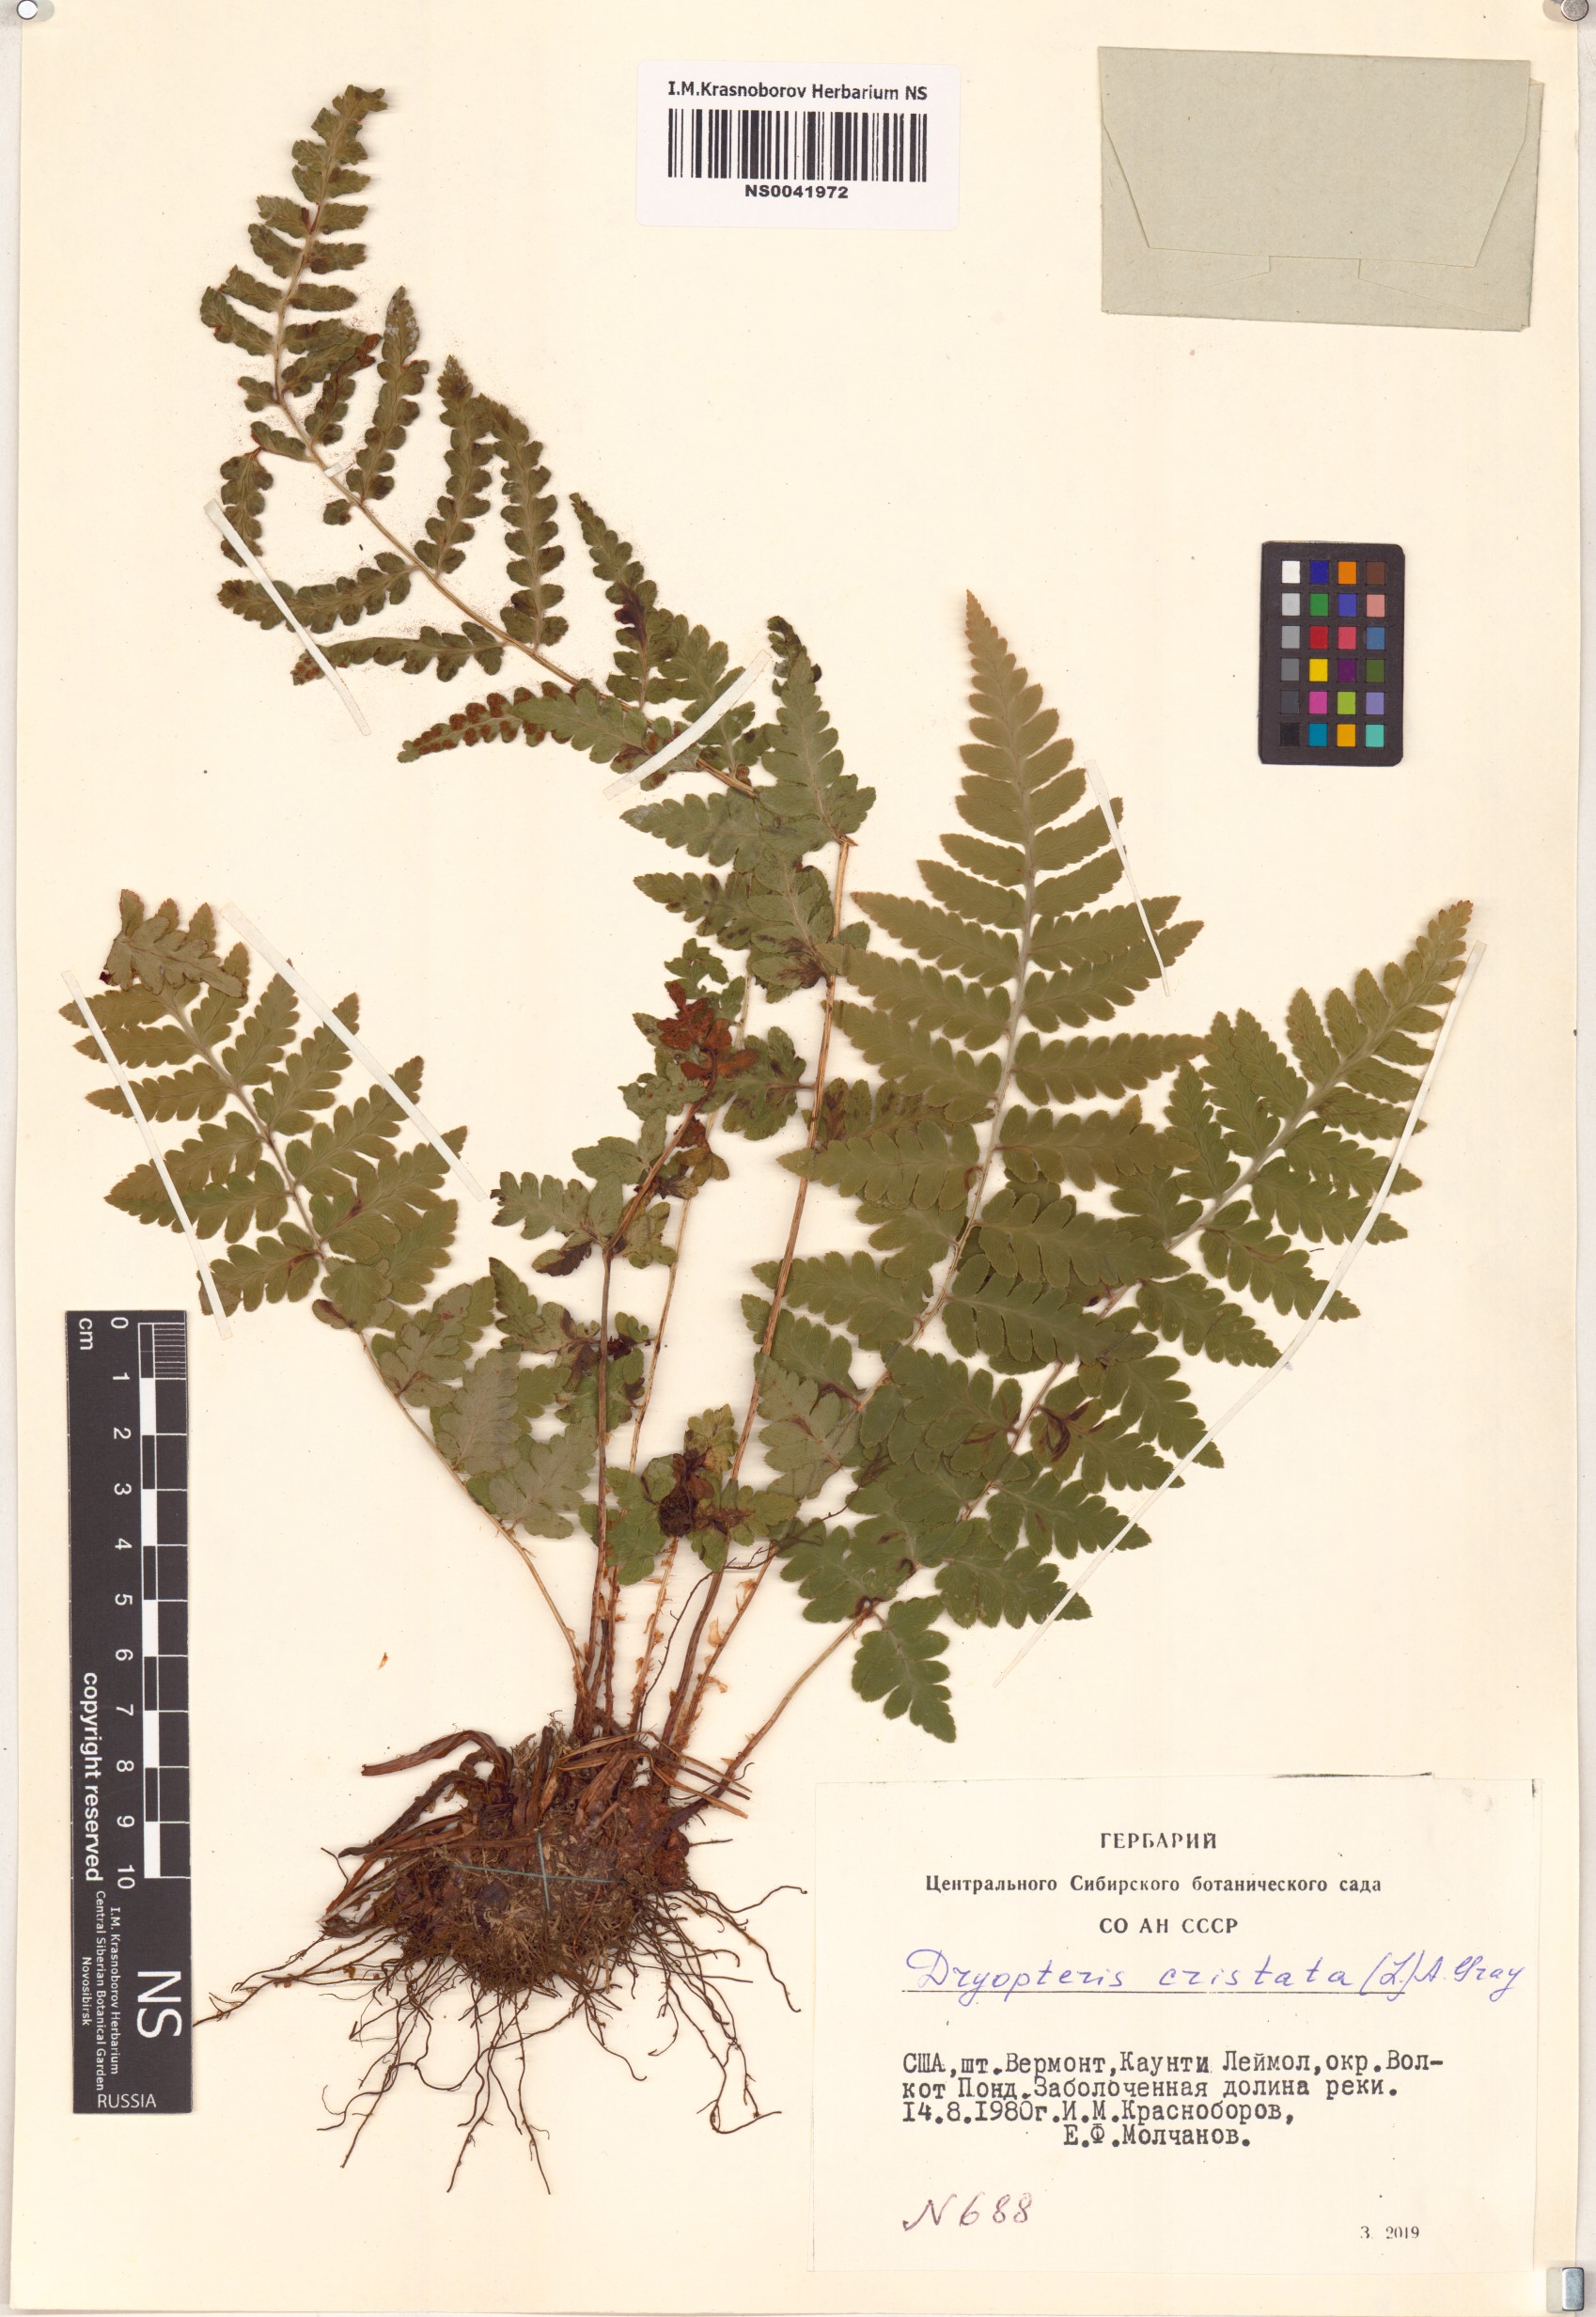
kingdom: Plantae
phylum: Tracheophyta
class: Polypodiopsida
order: Polypodiales
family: Dryopteridaceae
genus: Dryopteris
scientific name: Dryopteris cristata
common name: Crested wood fern
